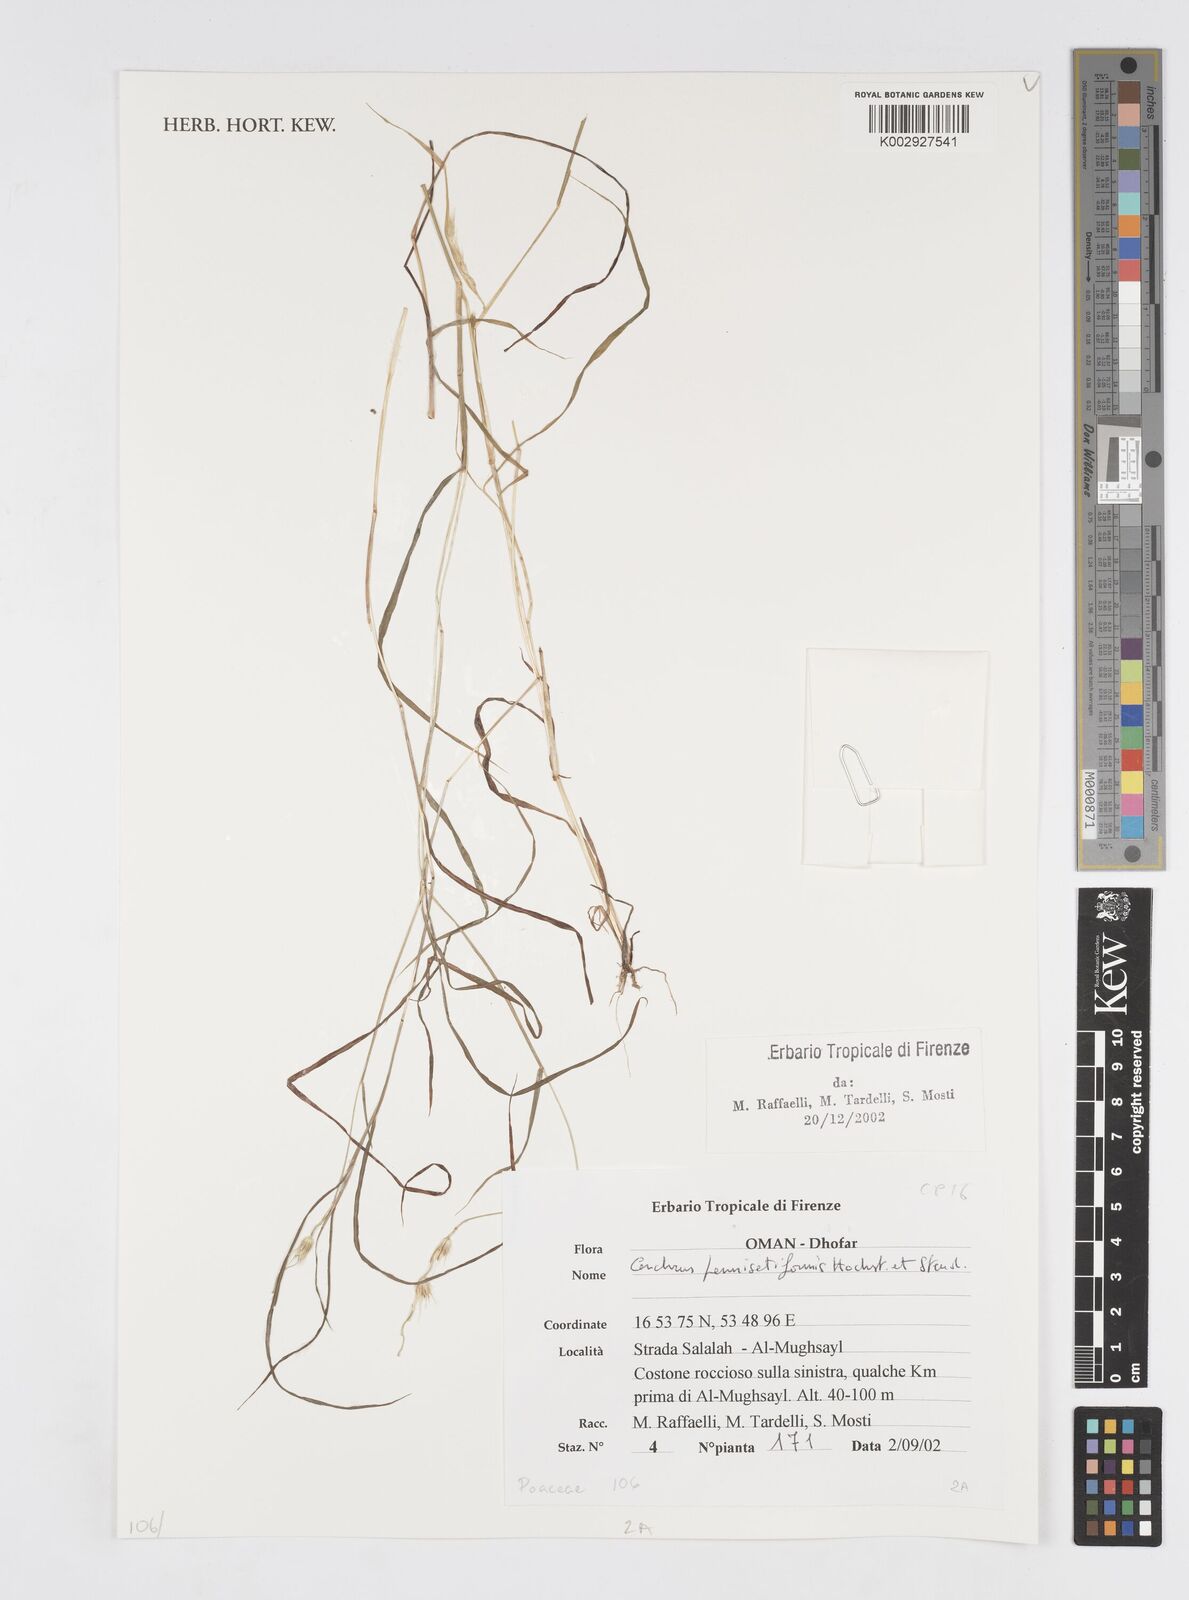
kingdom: Plantae
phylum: Tracheophyta
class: Liliopsida
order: Poales
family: Poaceae
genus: Cenchrus
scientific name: Cenchrus pennisetiformis
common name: Cloncurry
